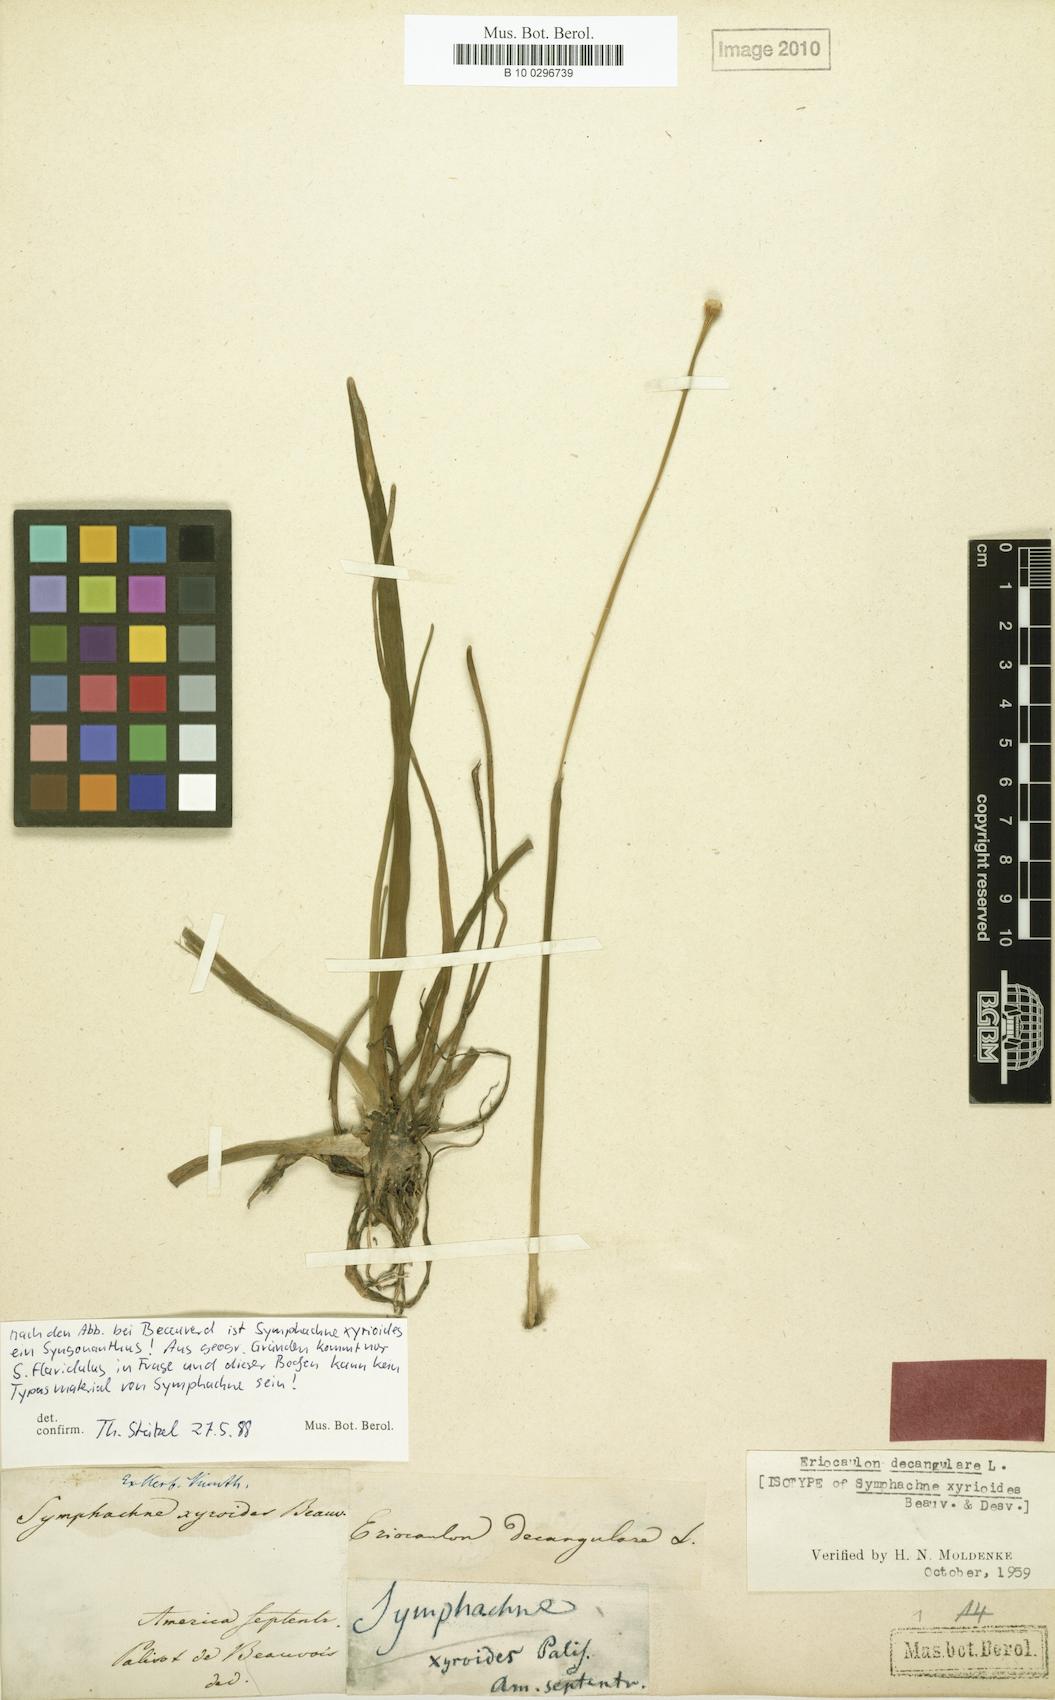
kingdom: Plantae
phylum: Tracheophyta
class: Liliopsida
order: Poales
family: Eriocaulaceae
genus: Eriocaulon
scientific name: Eriocaulon decangulare
